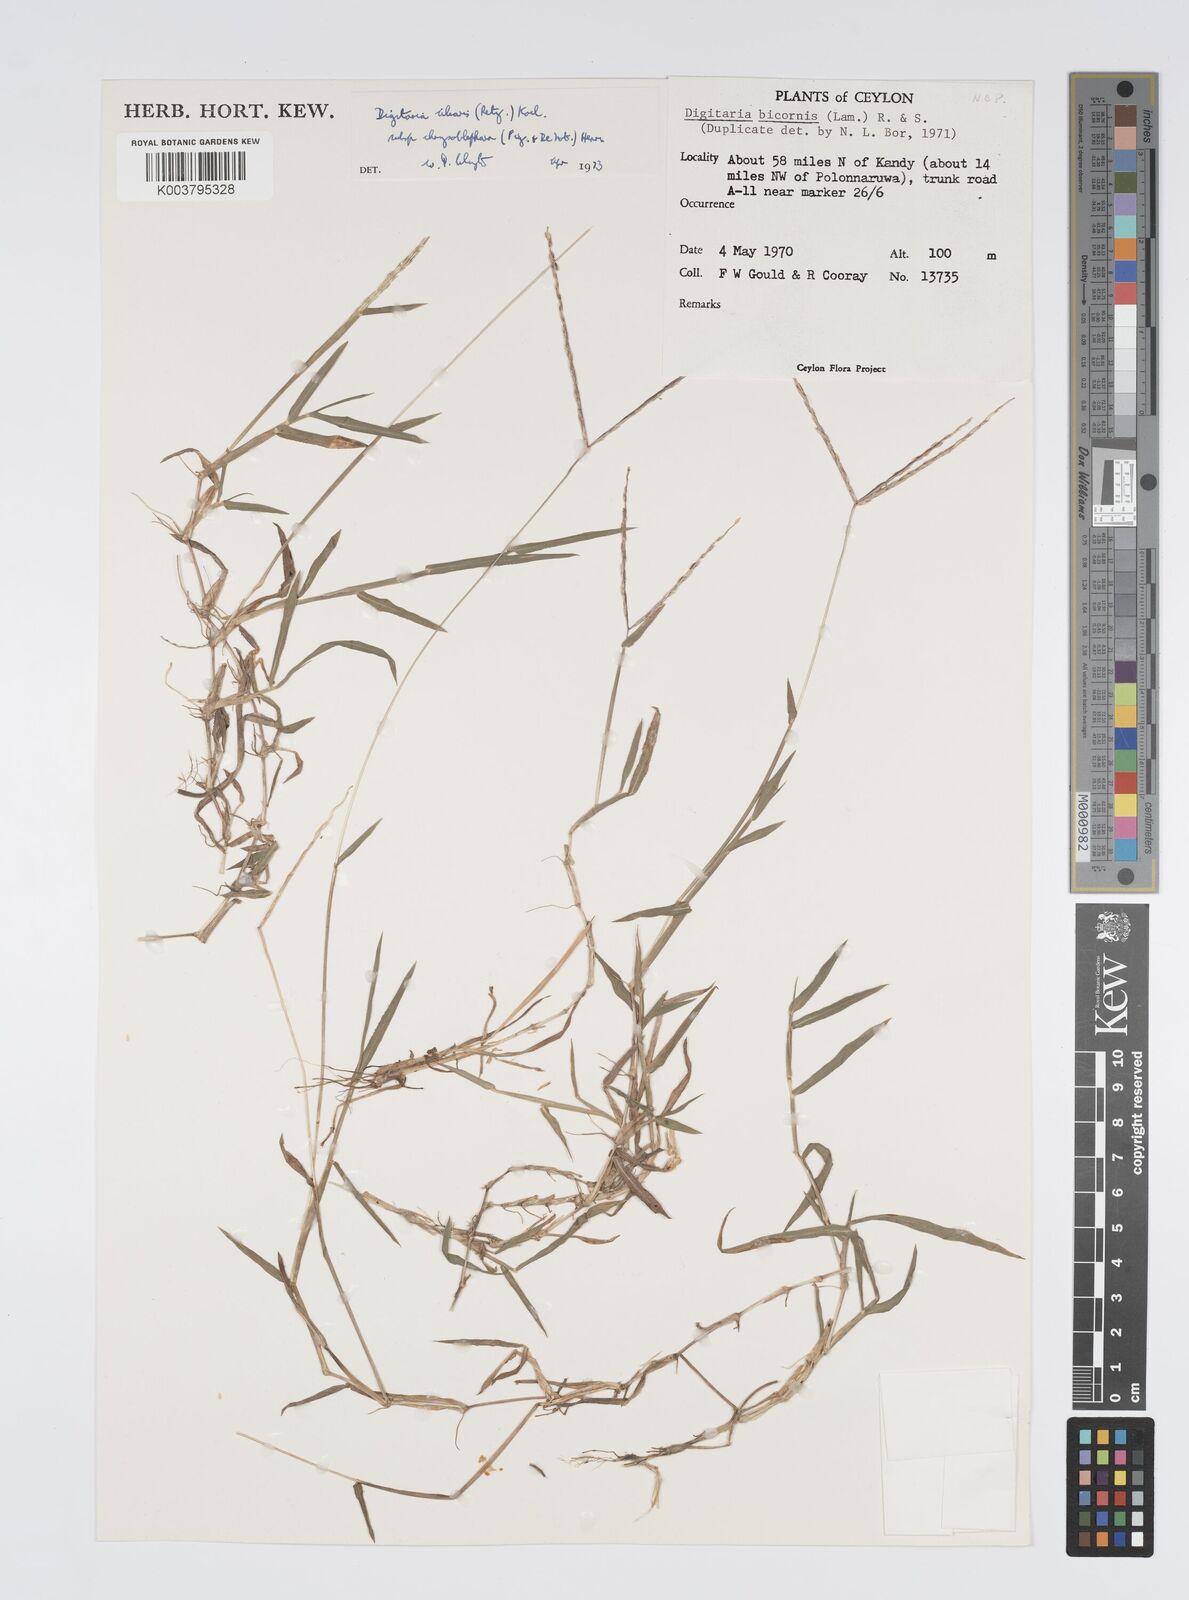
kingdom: Plantae
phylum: Tracheophyta
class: Liliopsida
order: Poales
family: Poaceae
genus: Digitaria
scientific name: Digitaria ciliaris
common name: Tropical finger-grass
